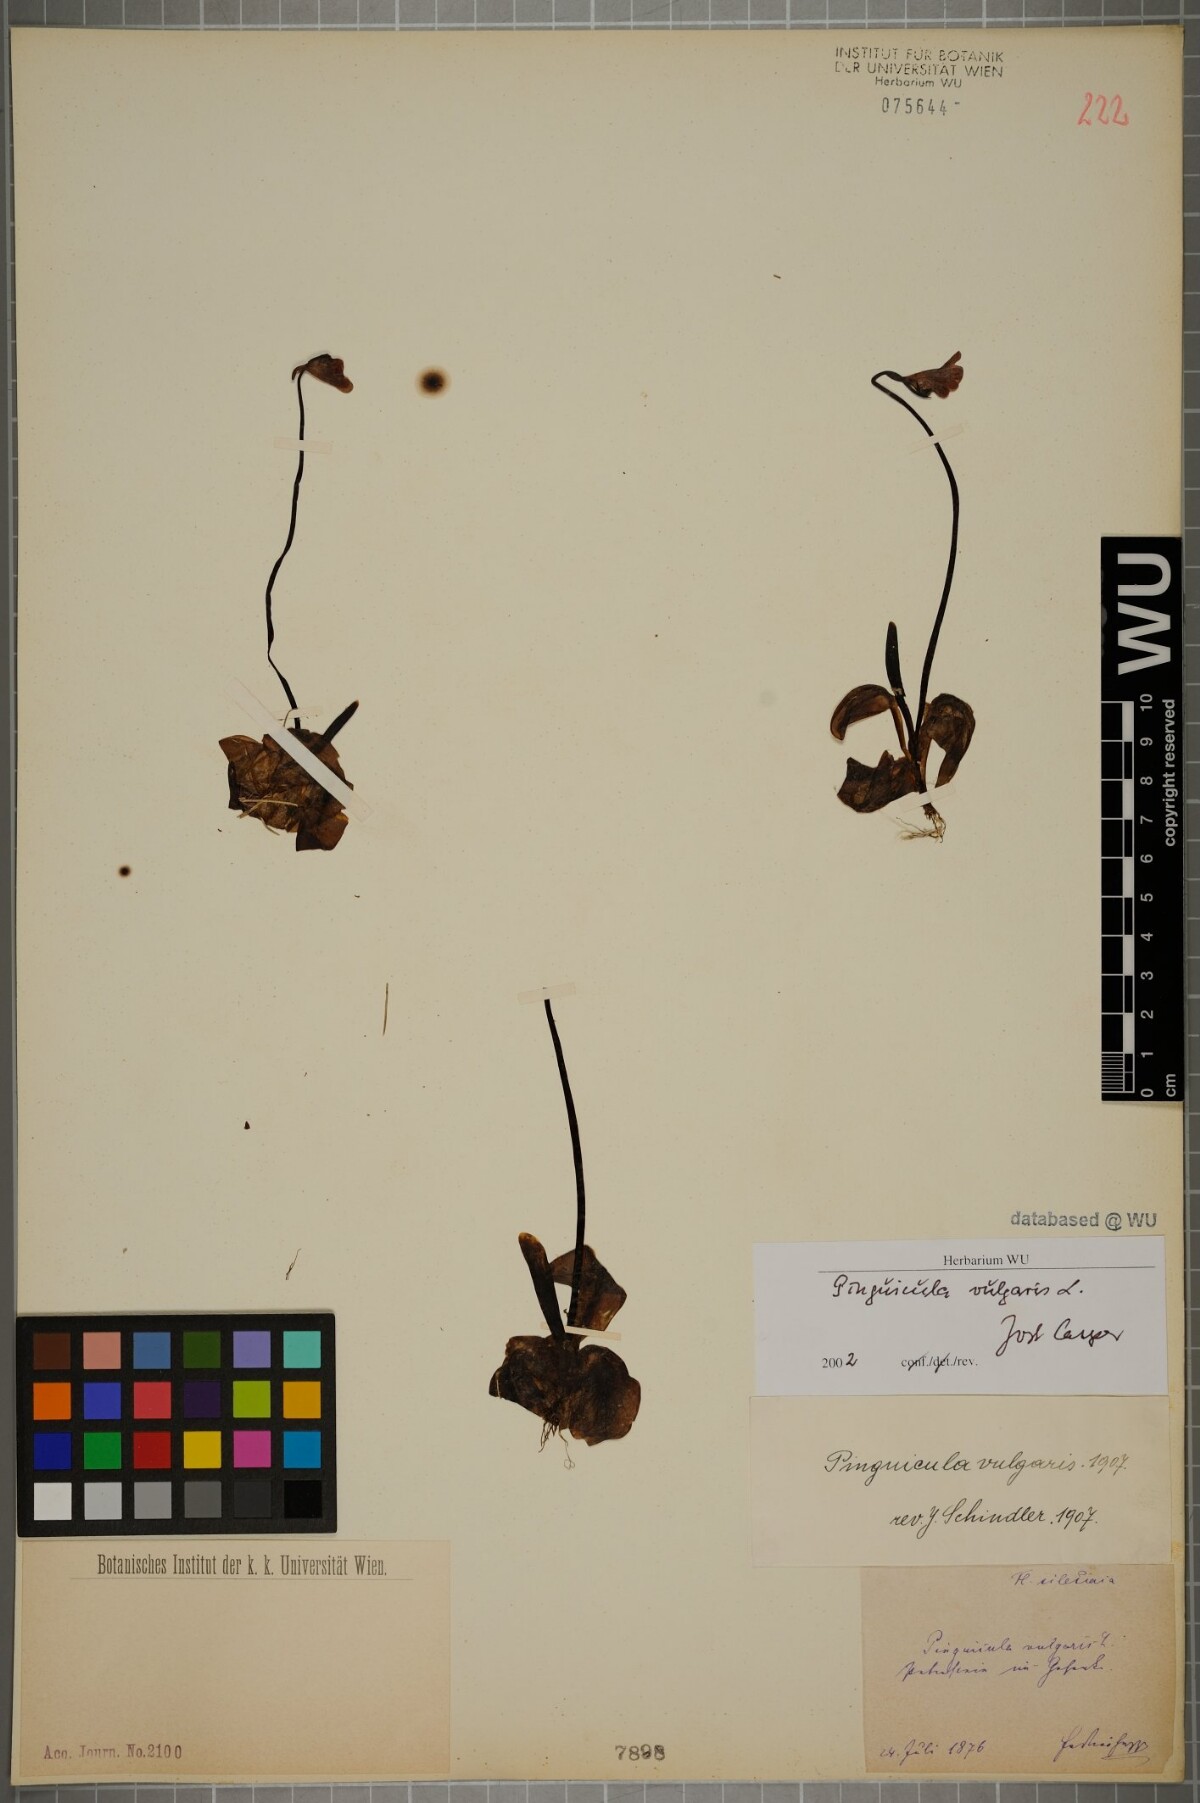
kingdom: Plantae
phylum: Tracheophyta
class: Magnoliopsida
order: Lamiales
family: Lentibulariaceae
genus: Pinguicula
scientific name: Pinguicula vulgaris
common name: Common butterwort
